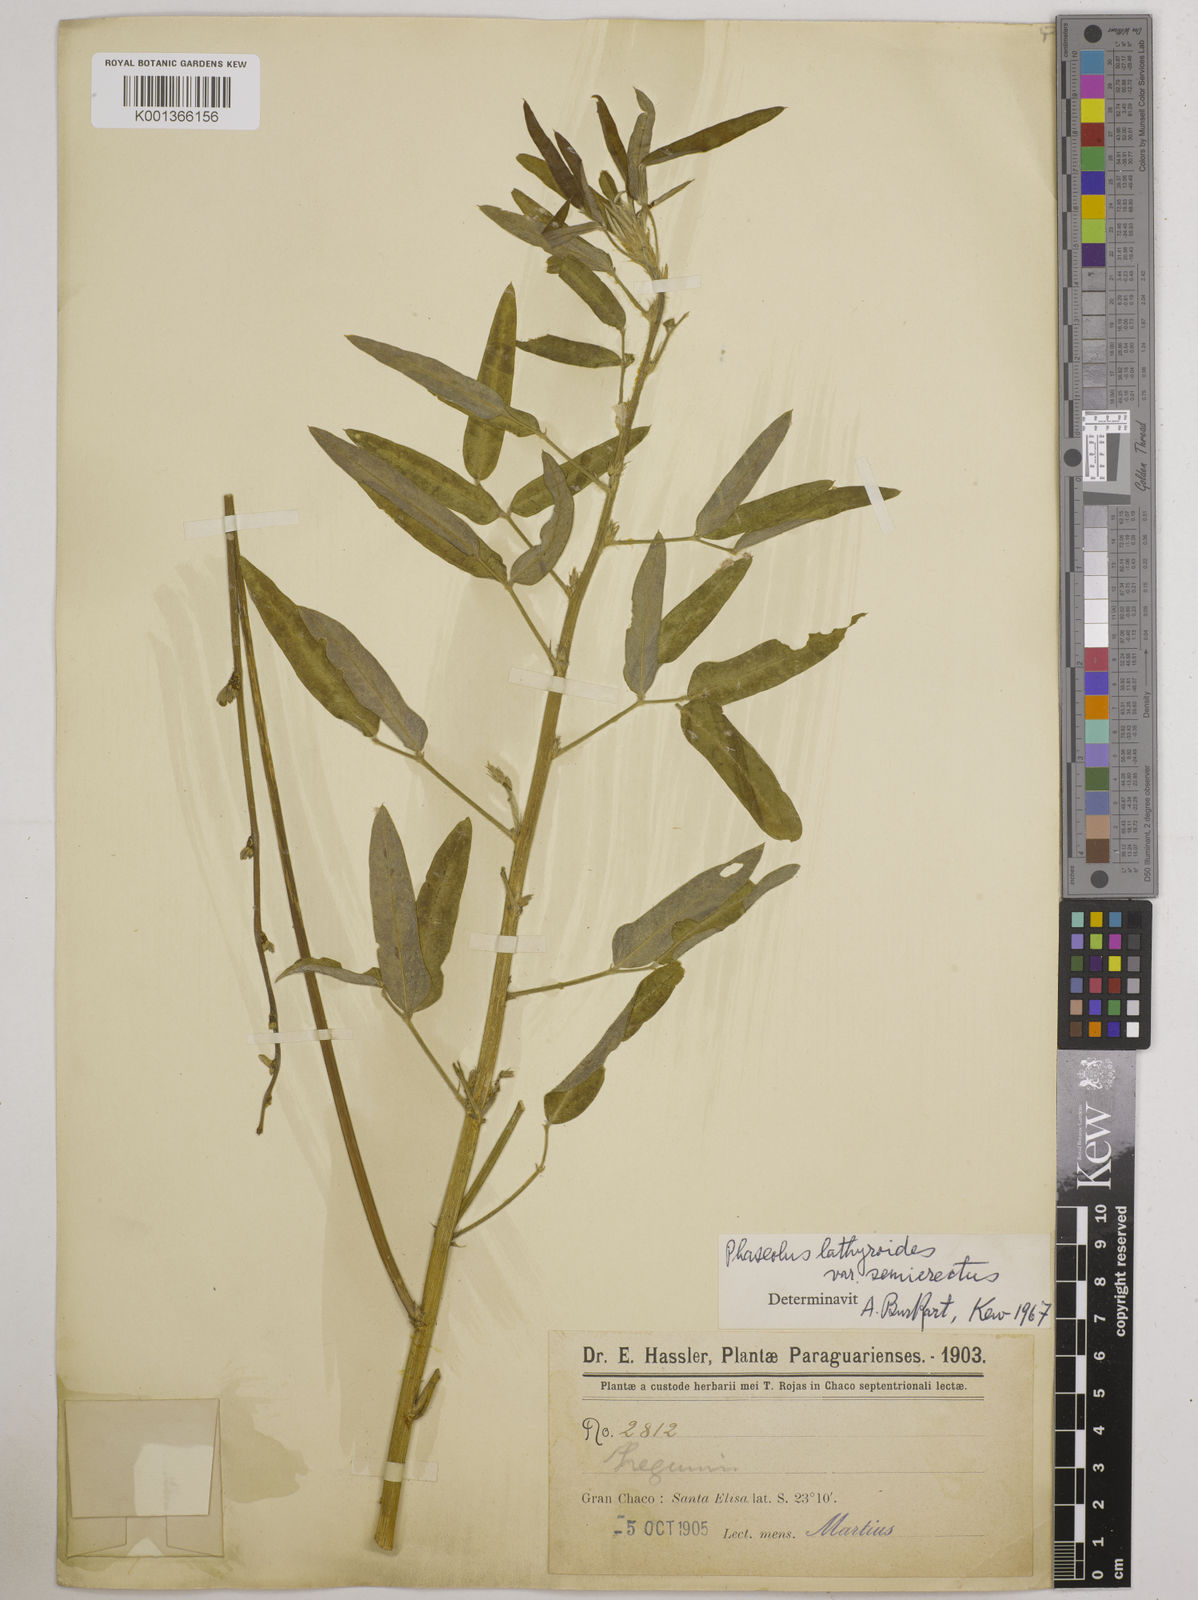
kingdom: Plantae
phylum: Tracheophyta
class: Magnoliopsida
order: Fabales
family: Fabaceae
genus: Macroptilium
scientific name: Macroptilium lathyroides
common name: Wild bushbean
